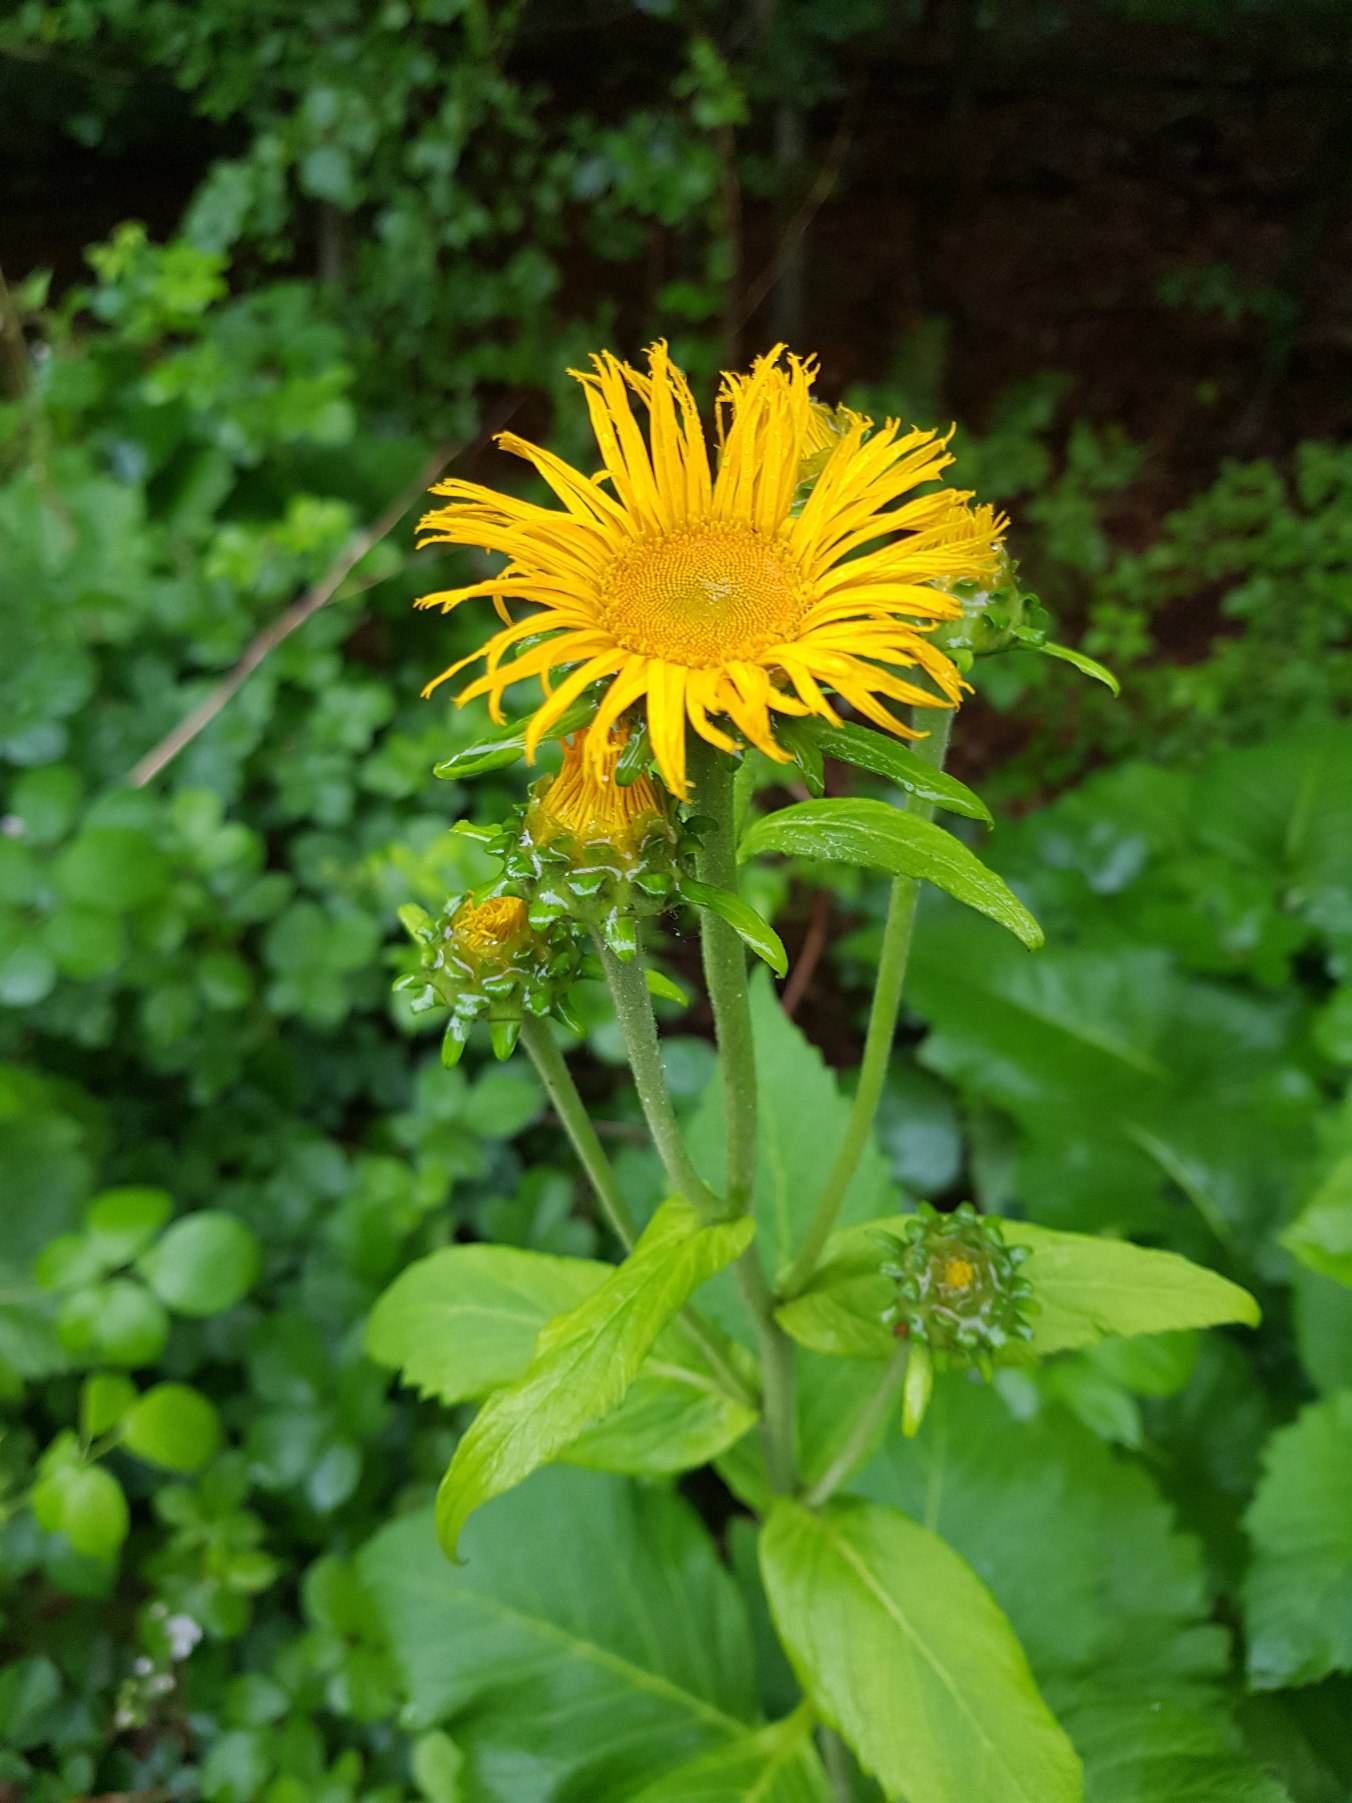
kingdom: Plantae
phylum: Tracheophyta
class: Magnoliopsida
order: Asterales
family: Asteraceae
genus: Telekia
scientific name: Telekia speciosa
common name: Tusindstråle
